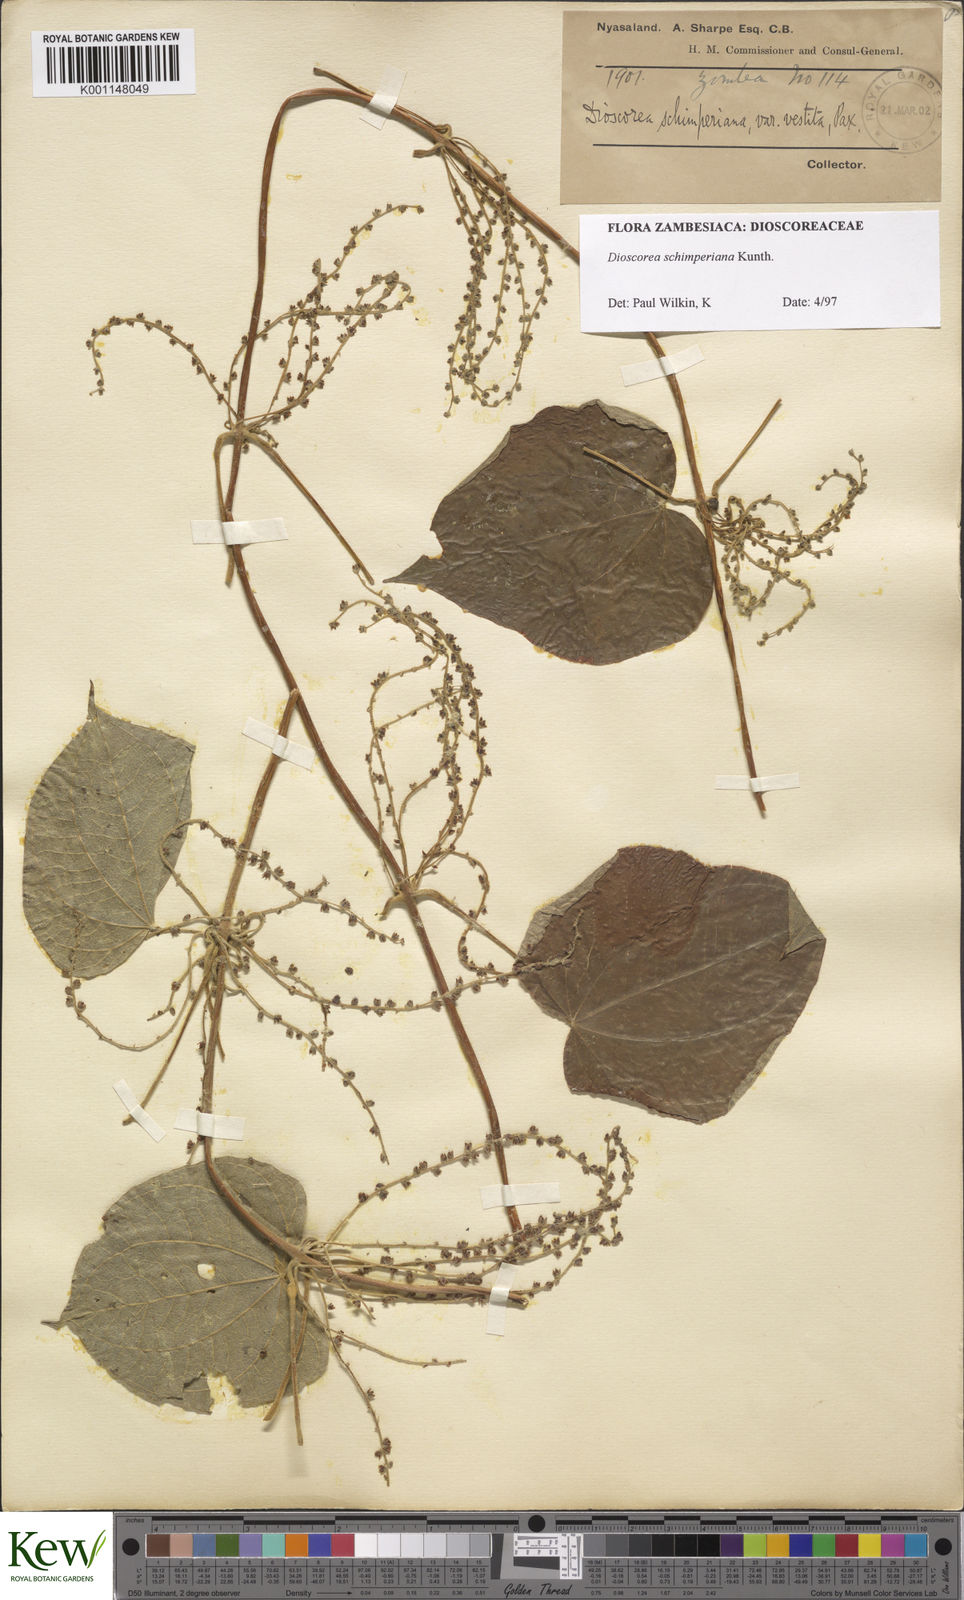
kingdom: Plantae
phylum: Tracheophyta
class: Liliopsida
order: Dioscoreales
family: Dioscoreaceae
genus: Dioscorea
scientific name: Dioscorea schimperiana
